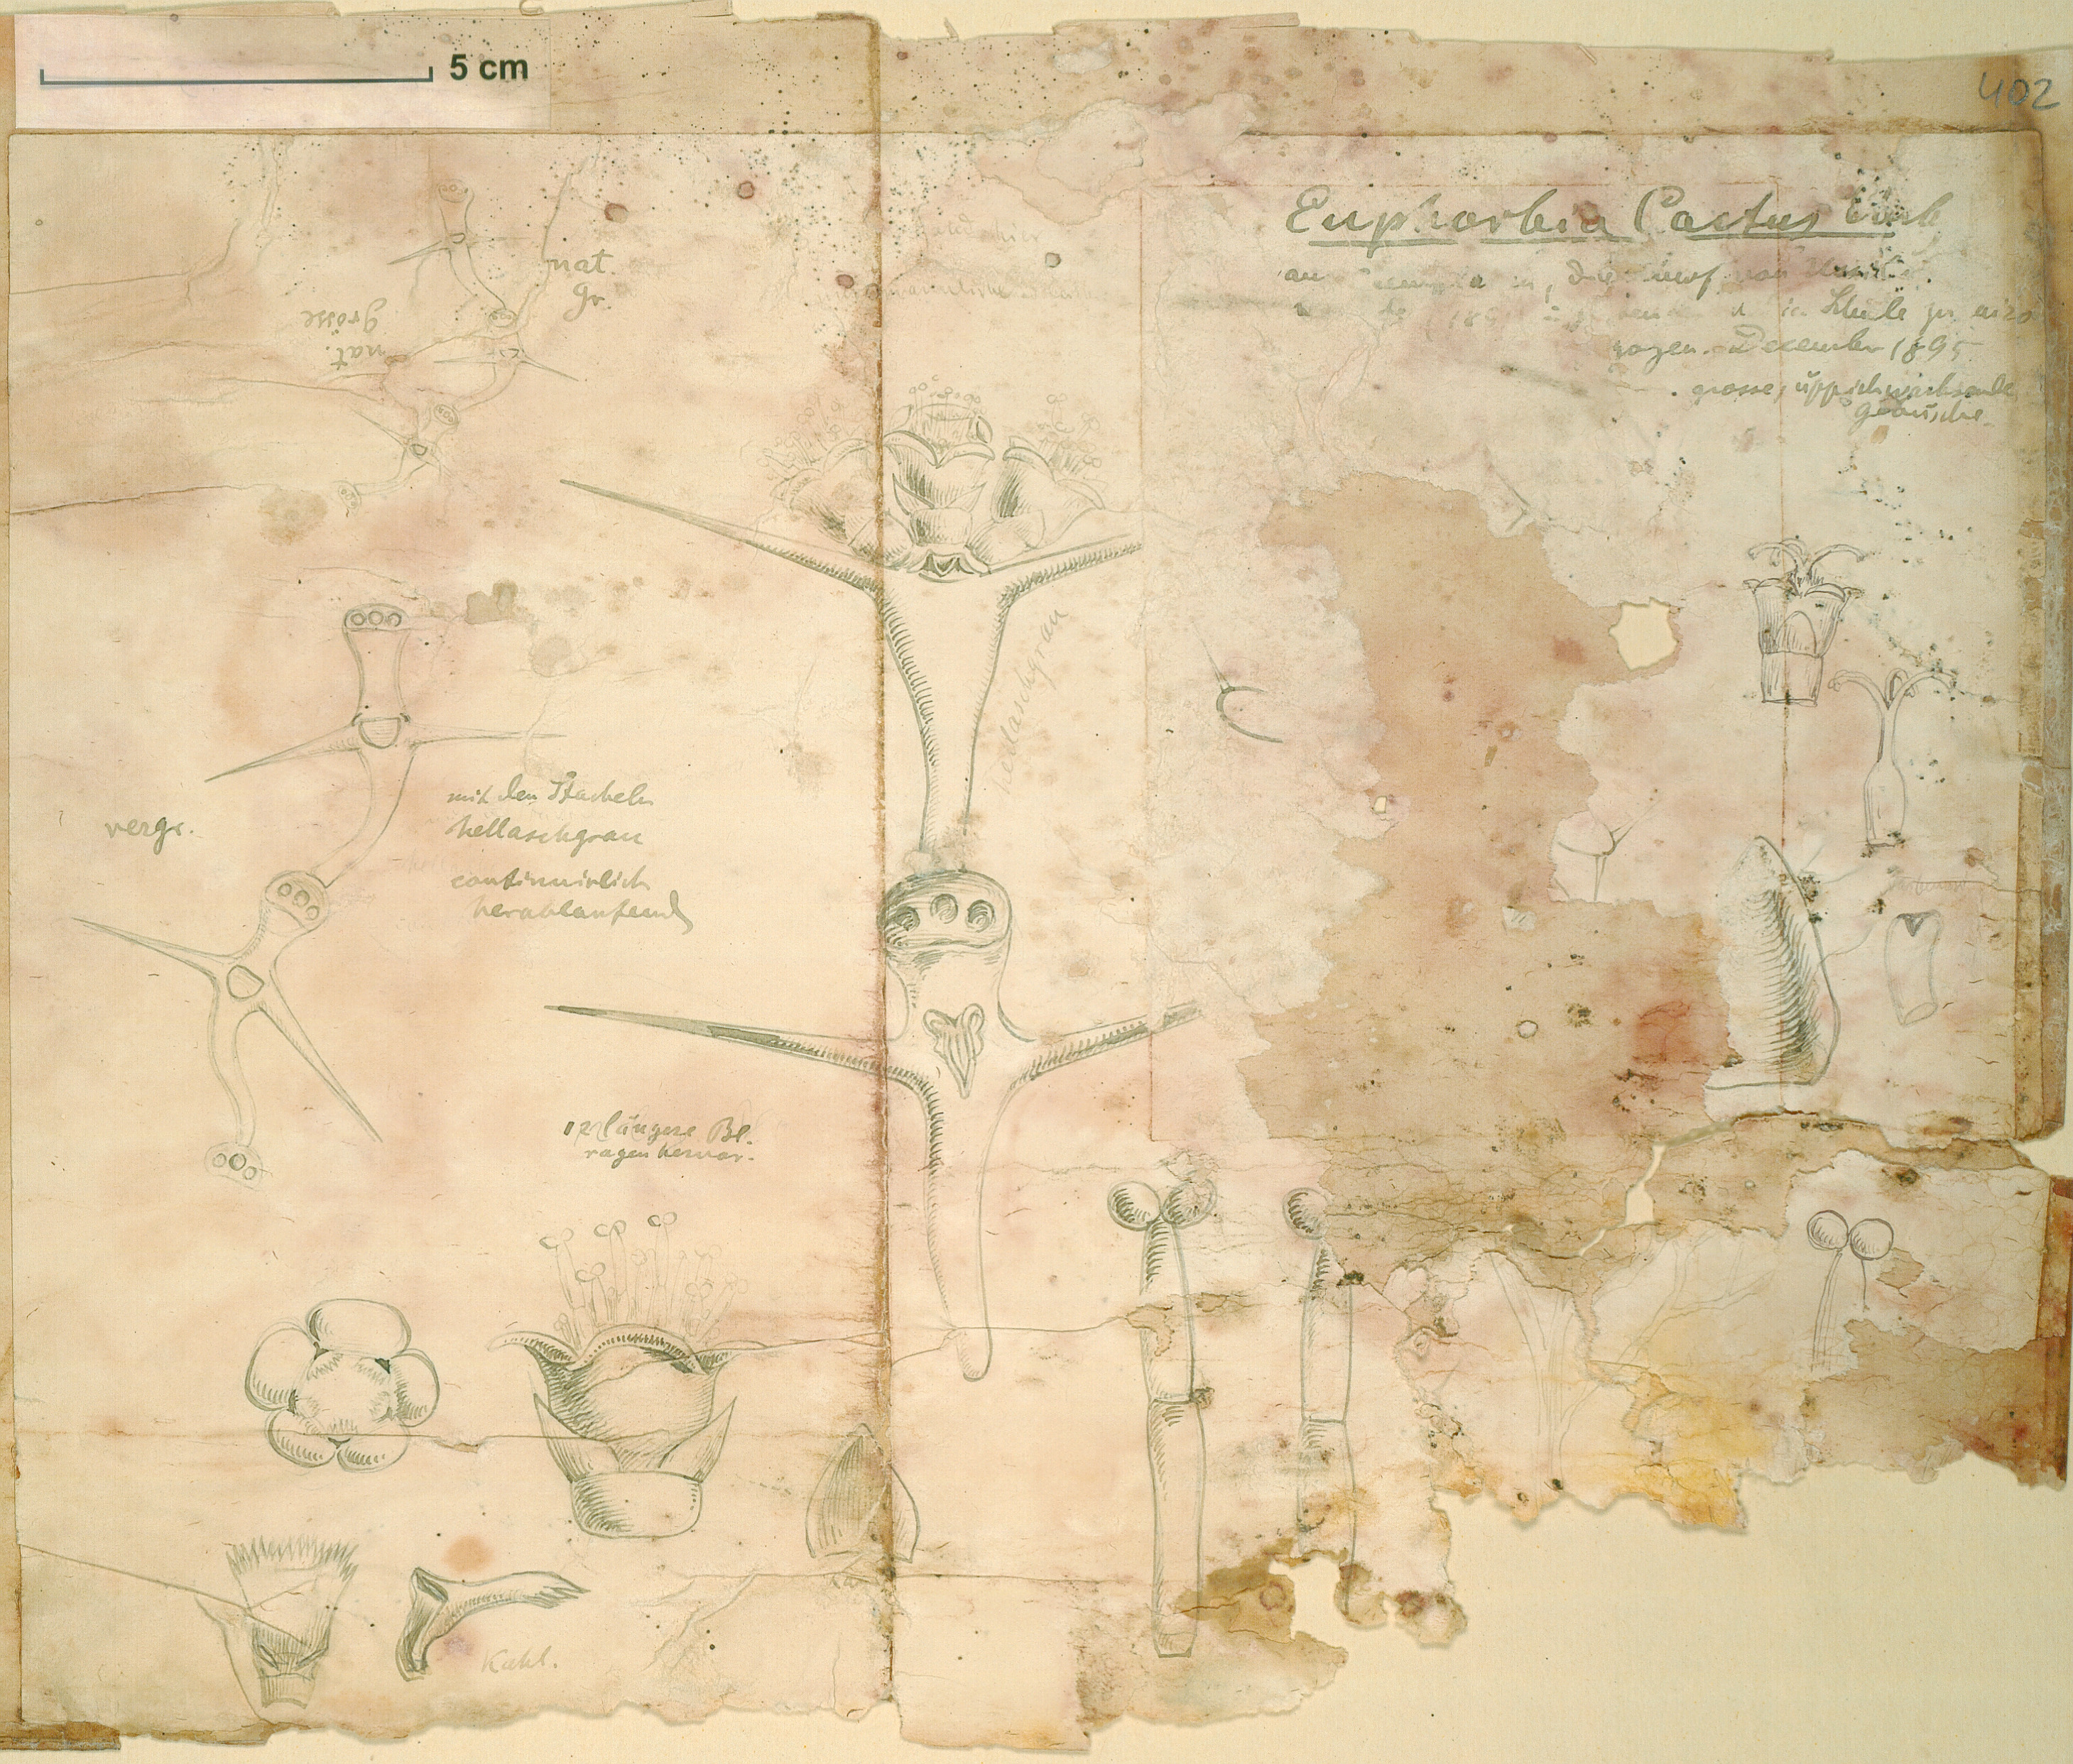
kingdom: Plantae
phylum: Tracheophyta
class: Magnoliopsida
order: Malpighiales
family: Euphorbiaceae
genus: Euphorbia
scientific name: Euphorbia cactus
